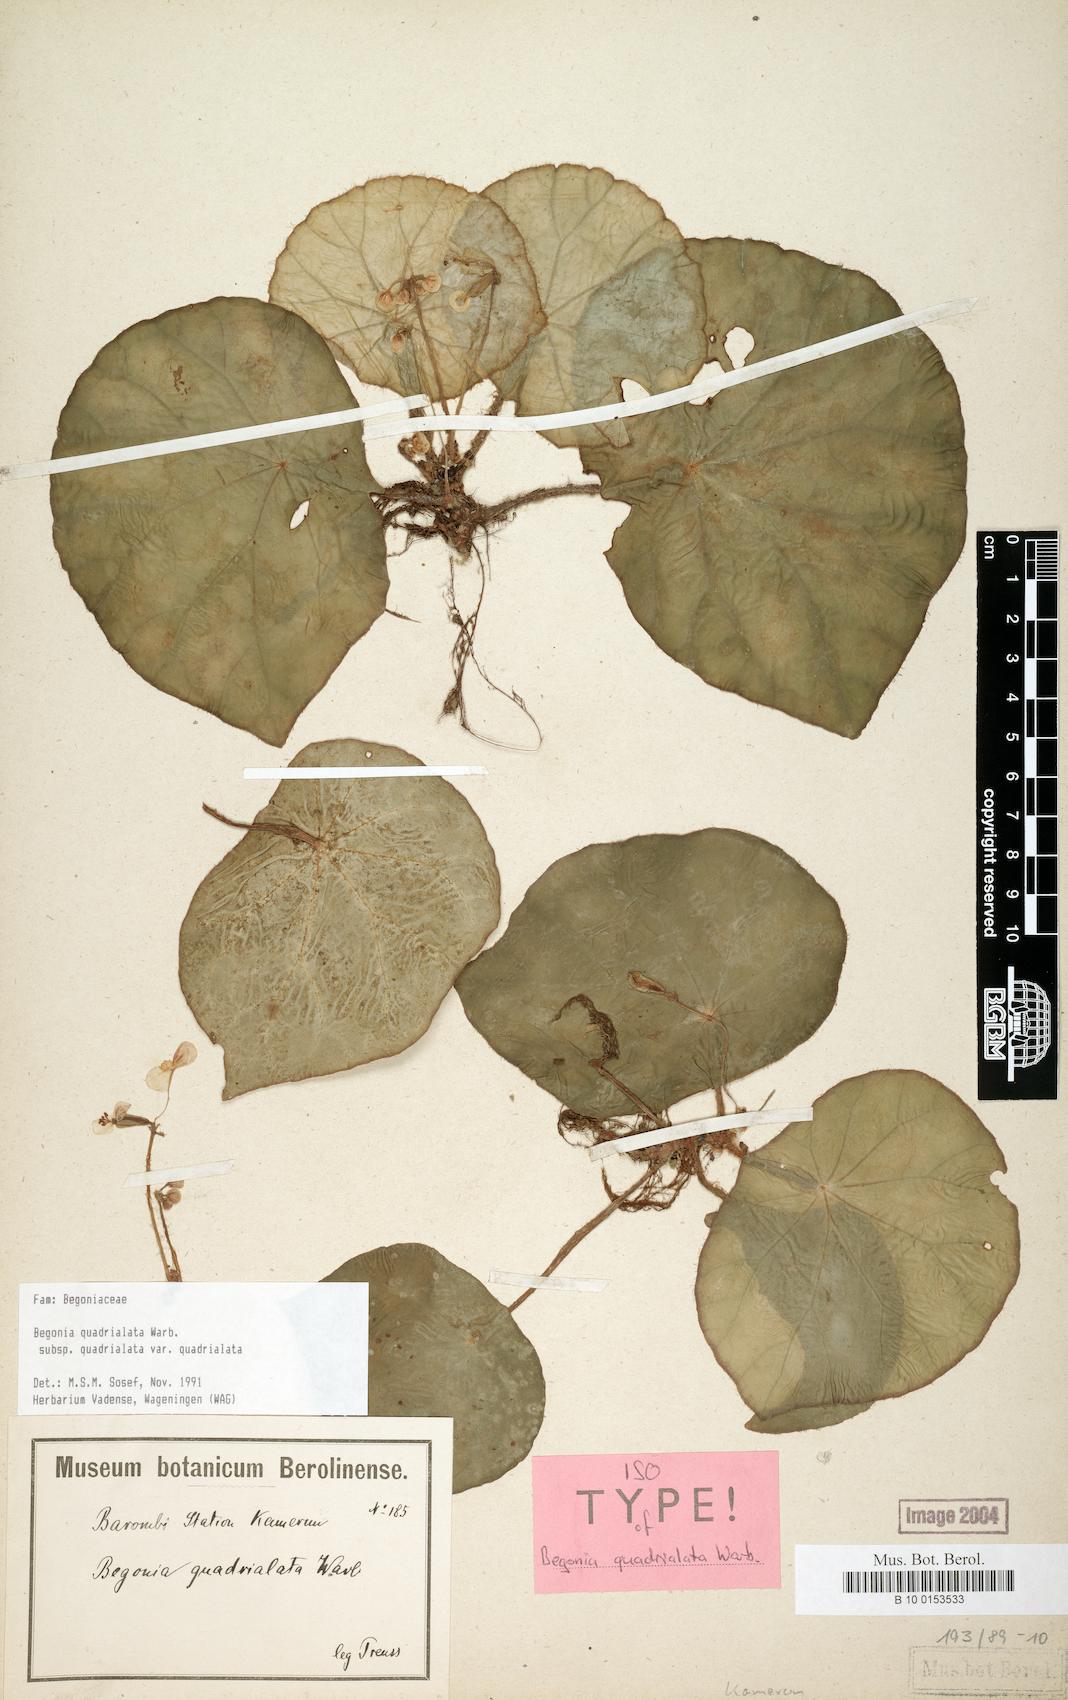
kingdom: Plantae
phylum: Tracheophyta
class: Magnoliopsida
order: Cucurbitales
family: Begoniaceae
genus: Begonia
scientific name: Begonia quadrialata
